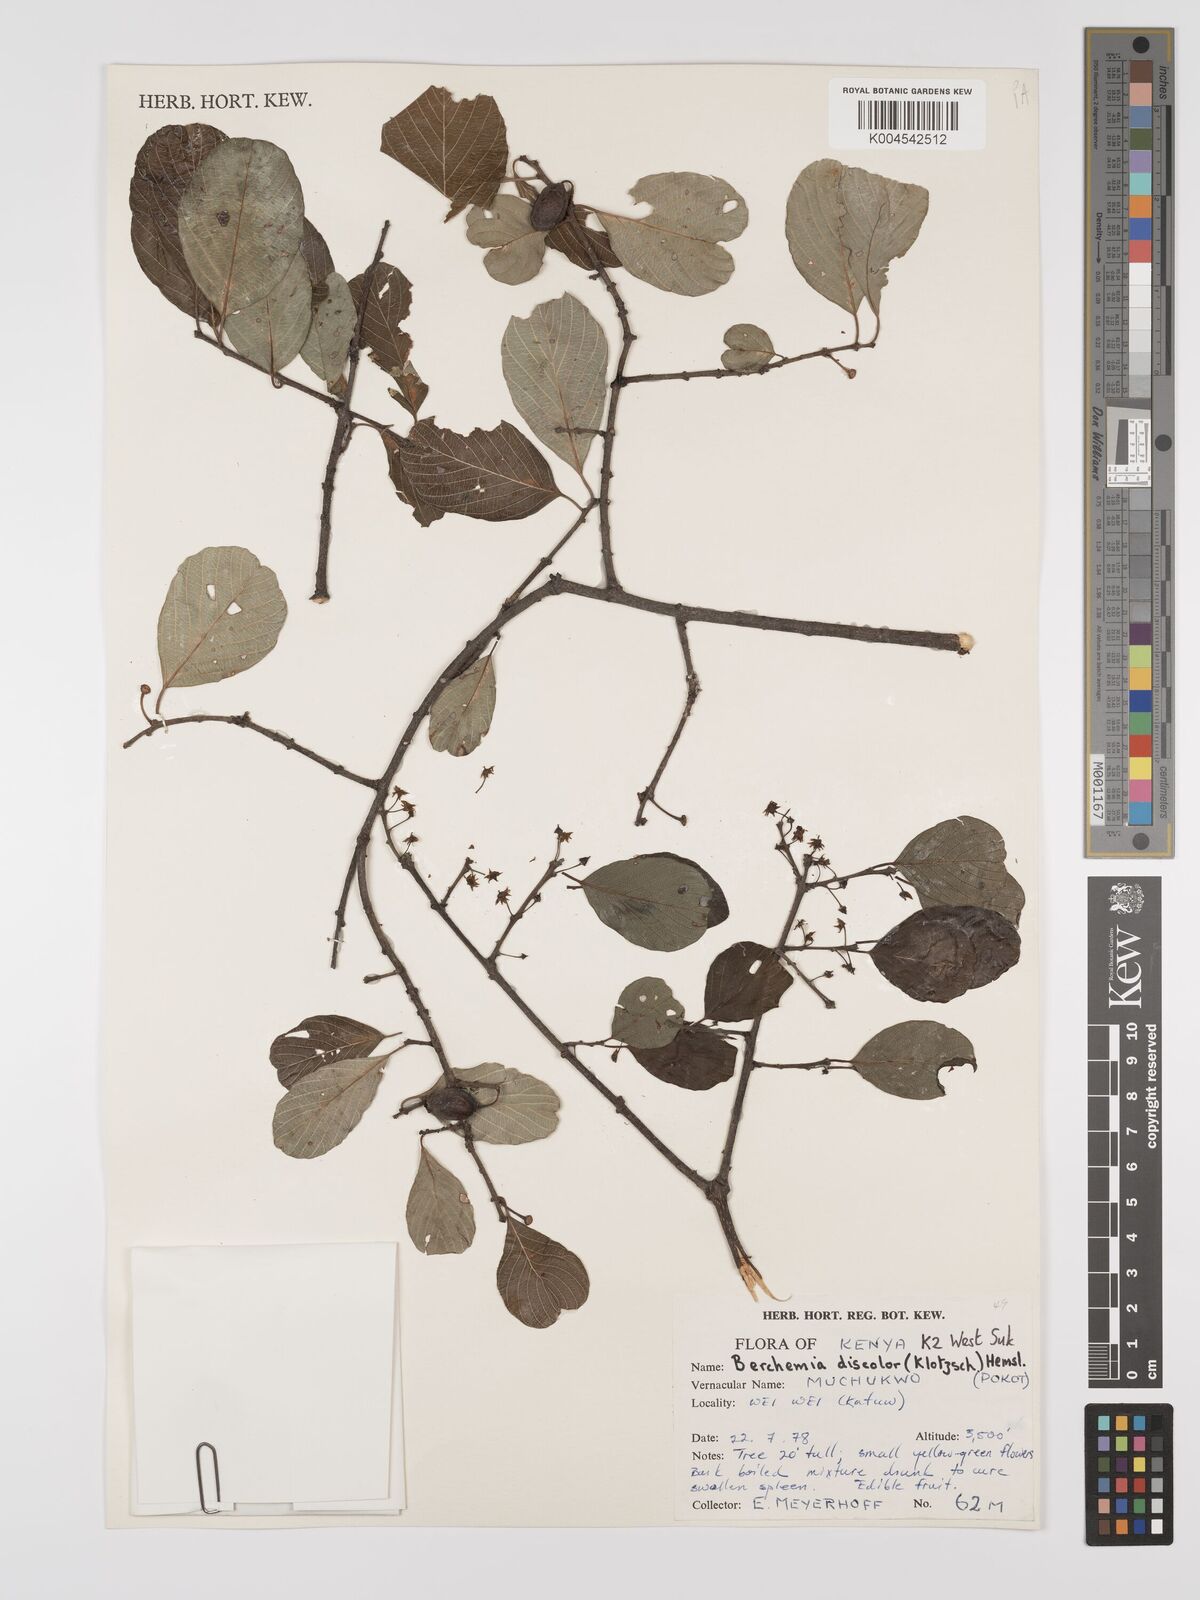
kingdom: Plantae
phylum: Tracheophyta
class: Magnoliopsida
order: Rosales
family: Rhamnaceae
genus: Phyllogeiton
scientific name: Phyllogeiton discolor
